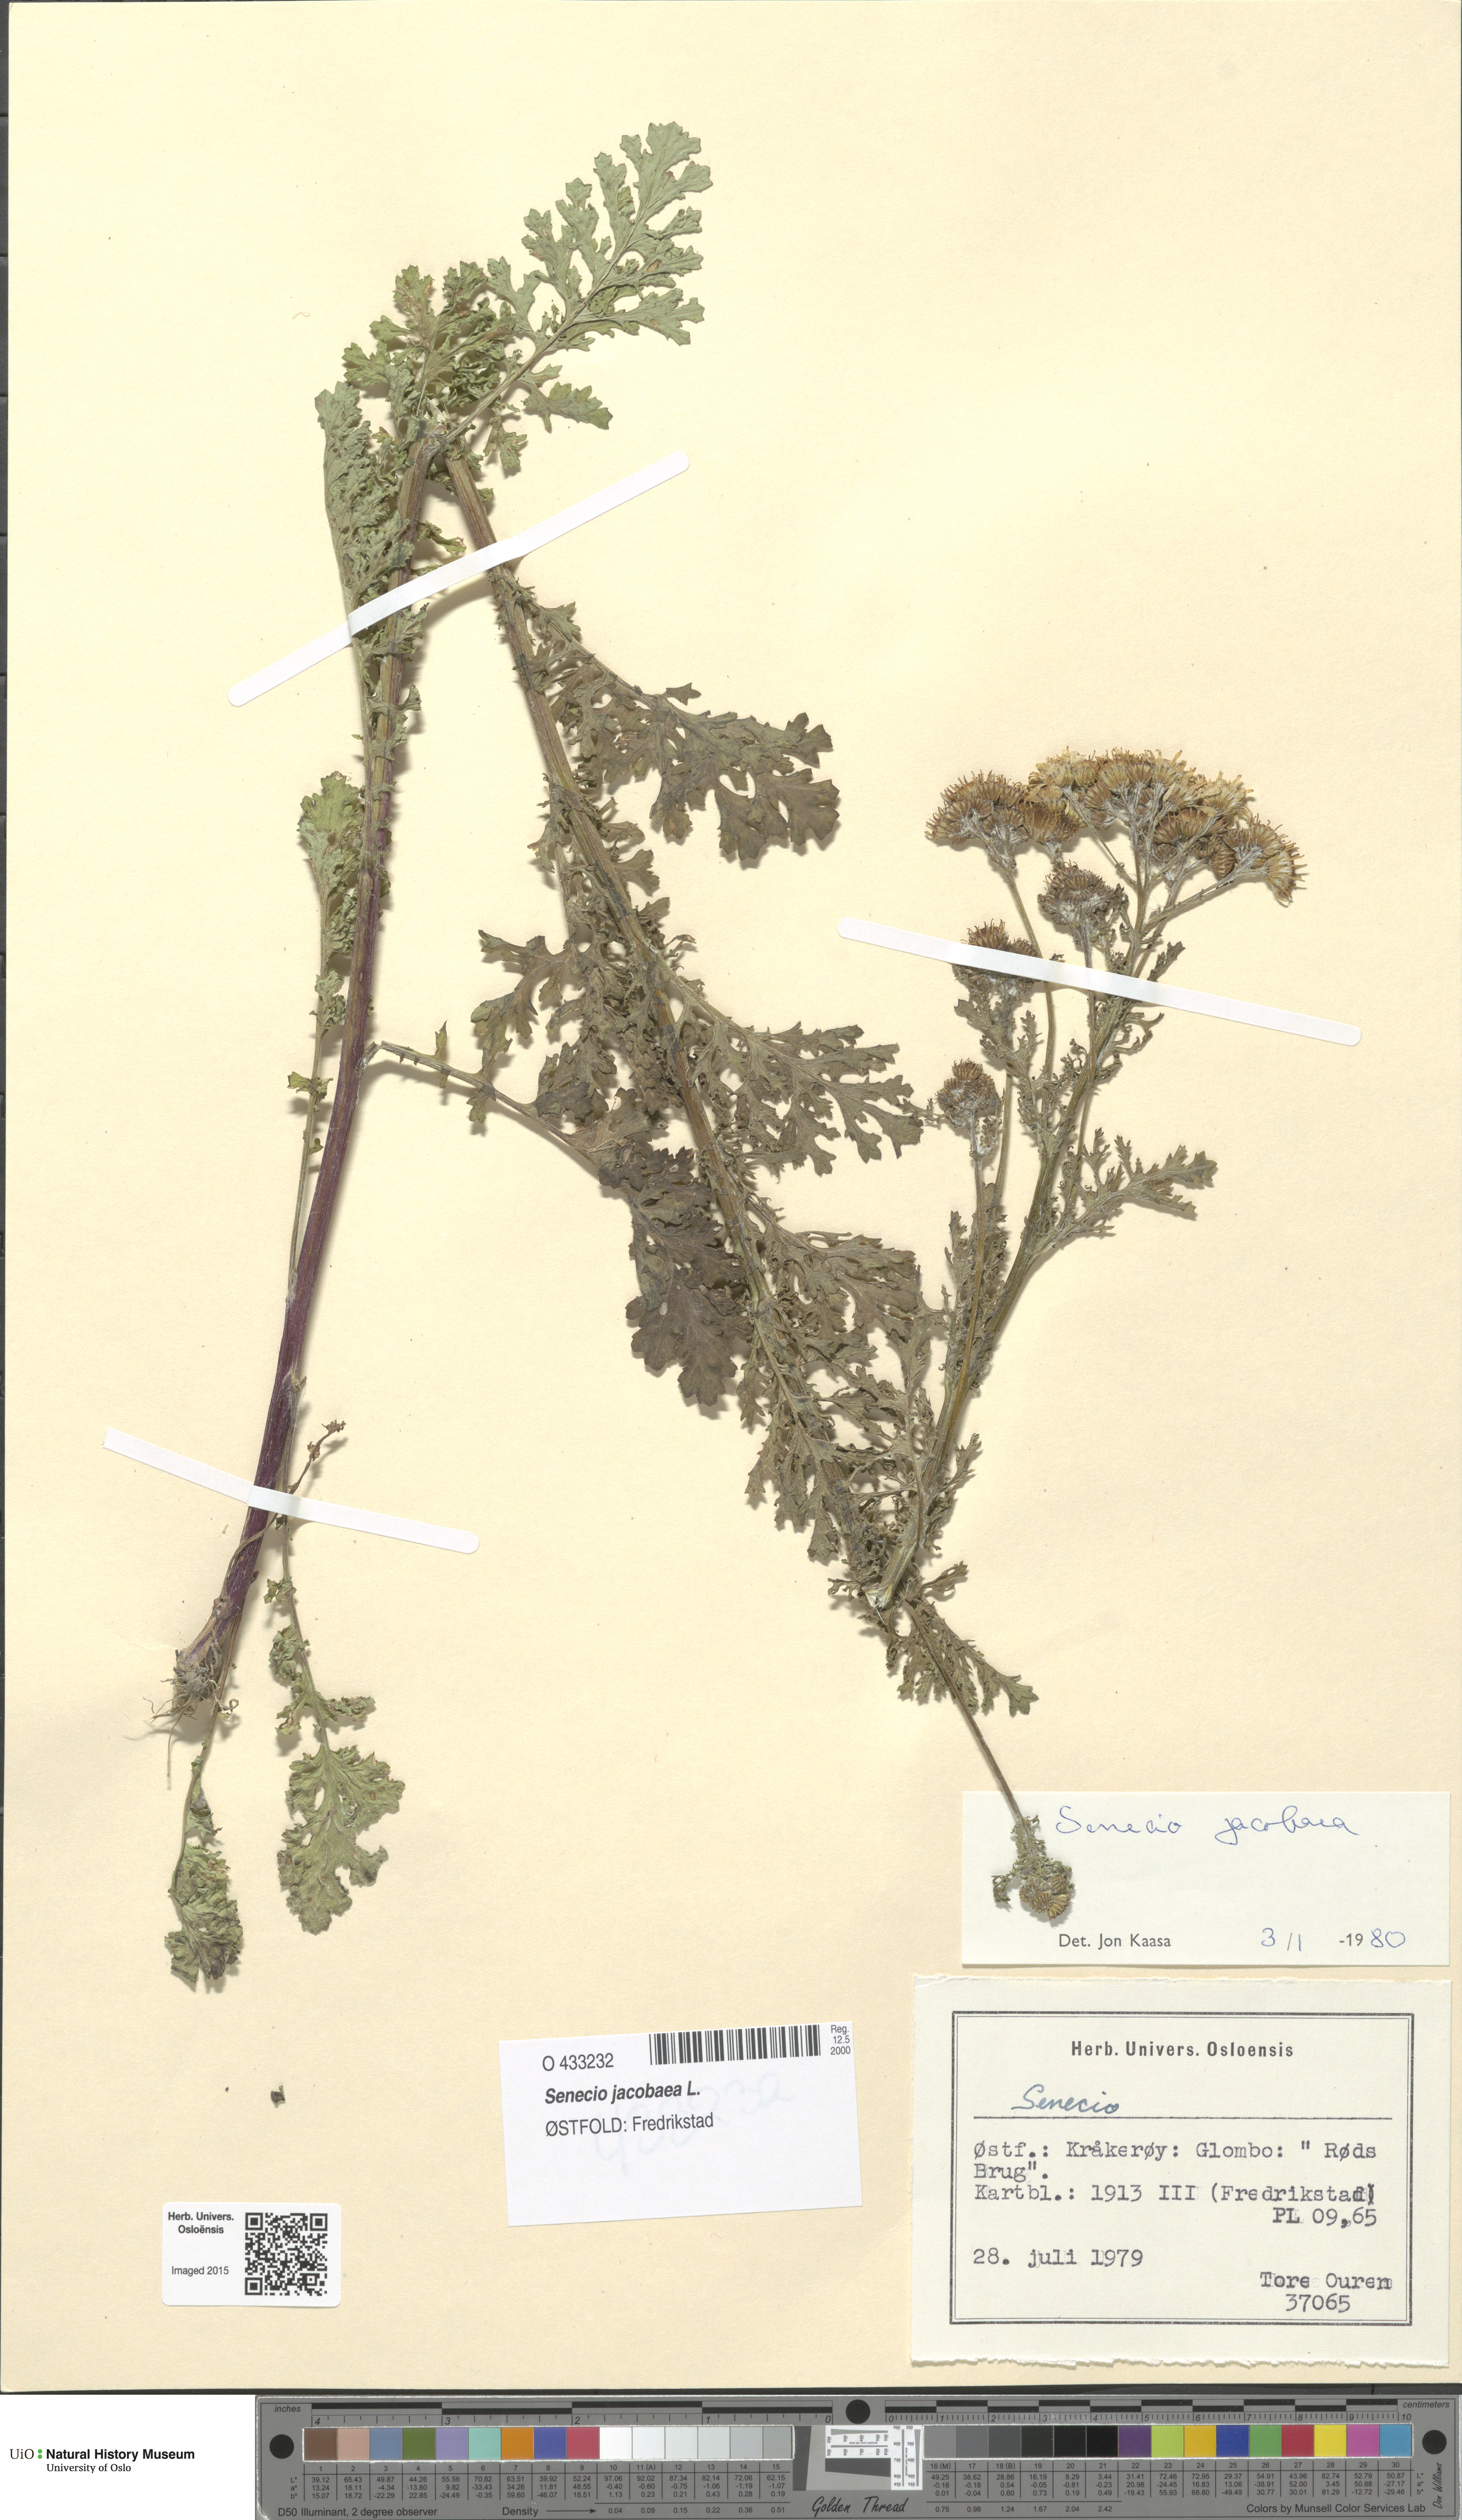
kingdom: Plantae
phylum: Tracheophyta
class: Magnoliopsida
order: Asterales
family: Asteraceae
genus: Jacobaea
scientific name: Jacobaea vulgaris
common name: Stinking willie
